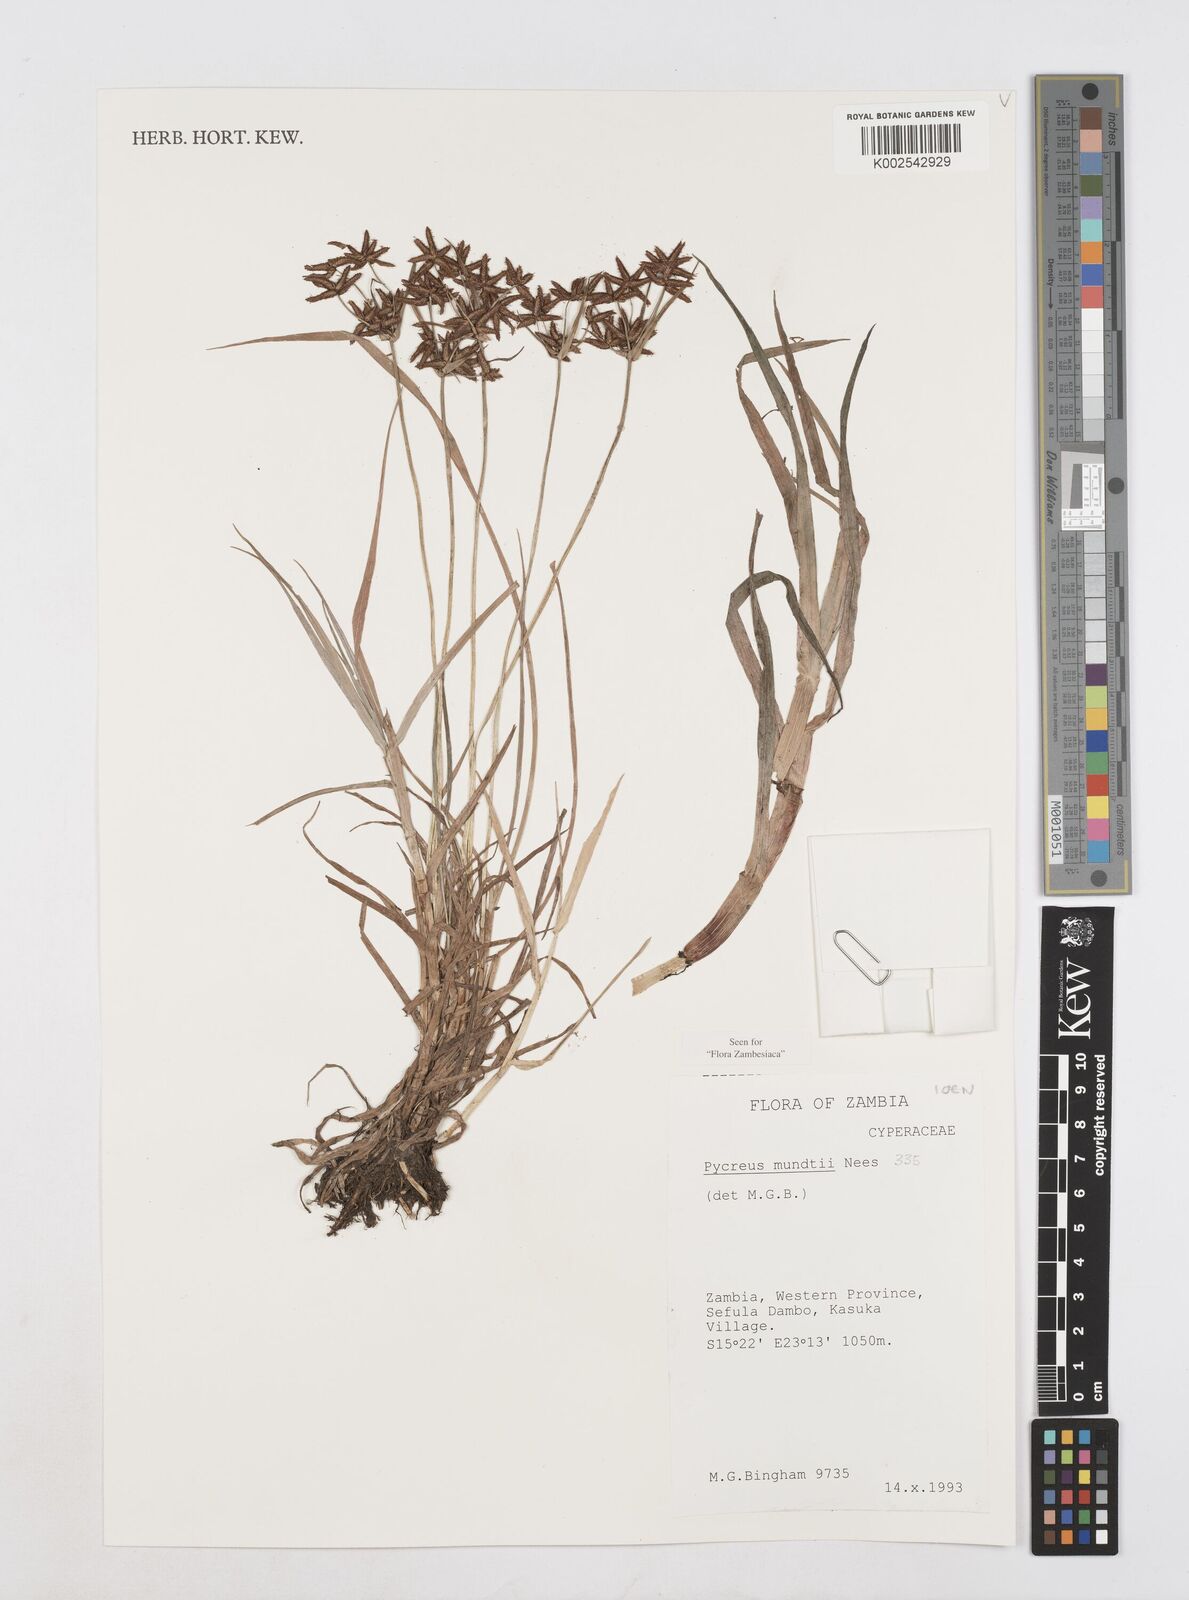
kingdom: Plantae
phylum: Tracheophyta
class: Liliopsida
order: Poales
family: Cyperaceae
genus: Cyperus
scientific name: Cyperus mundii
